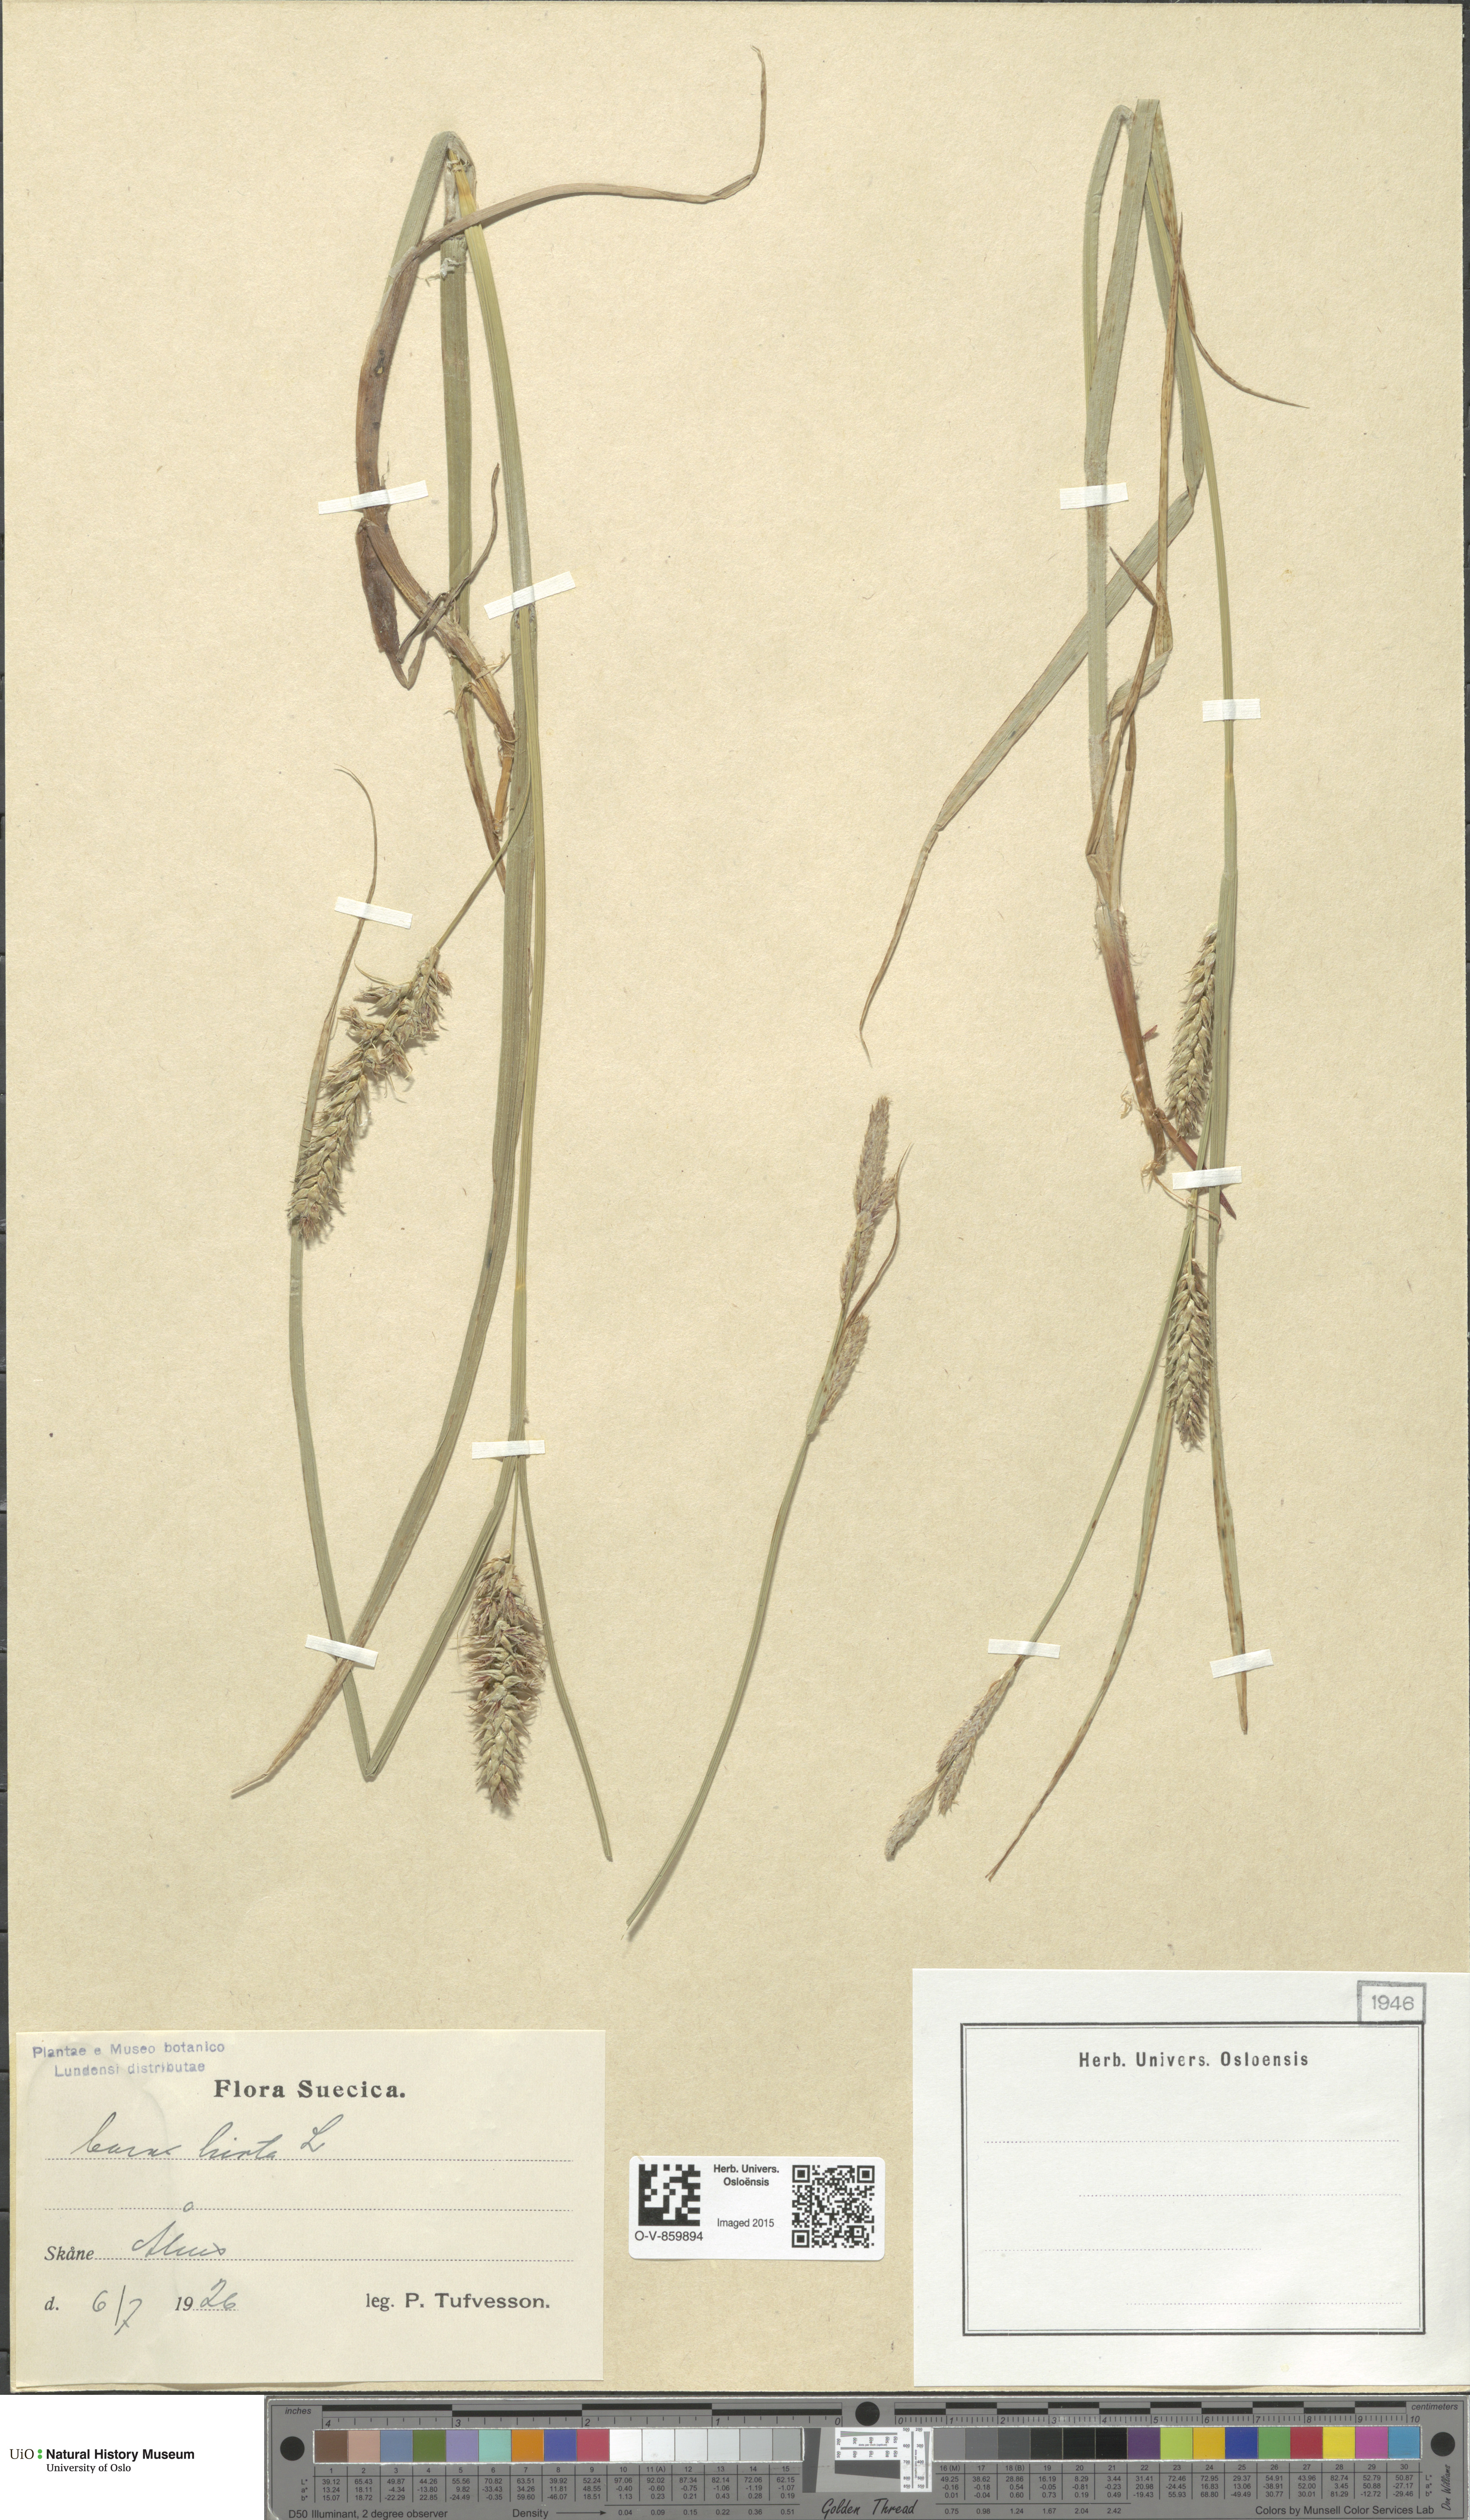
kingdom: Plantae
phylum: Tracheophyta
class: Liliopsida
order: Poales
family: Cyperaceae
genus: Carex
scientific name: Carex hirta
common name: Hairy sedge
